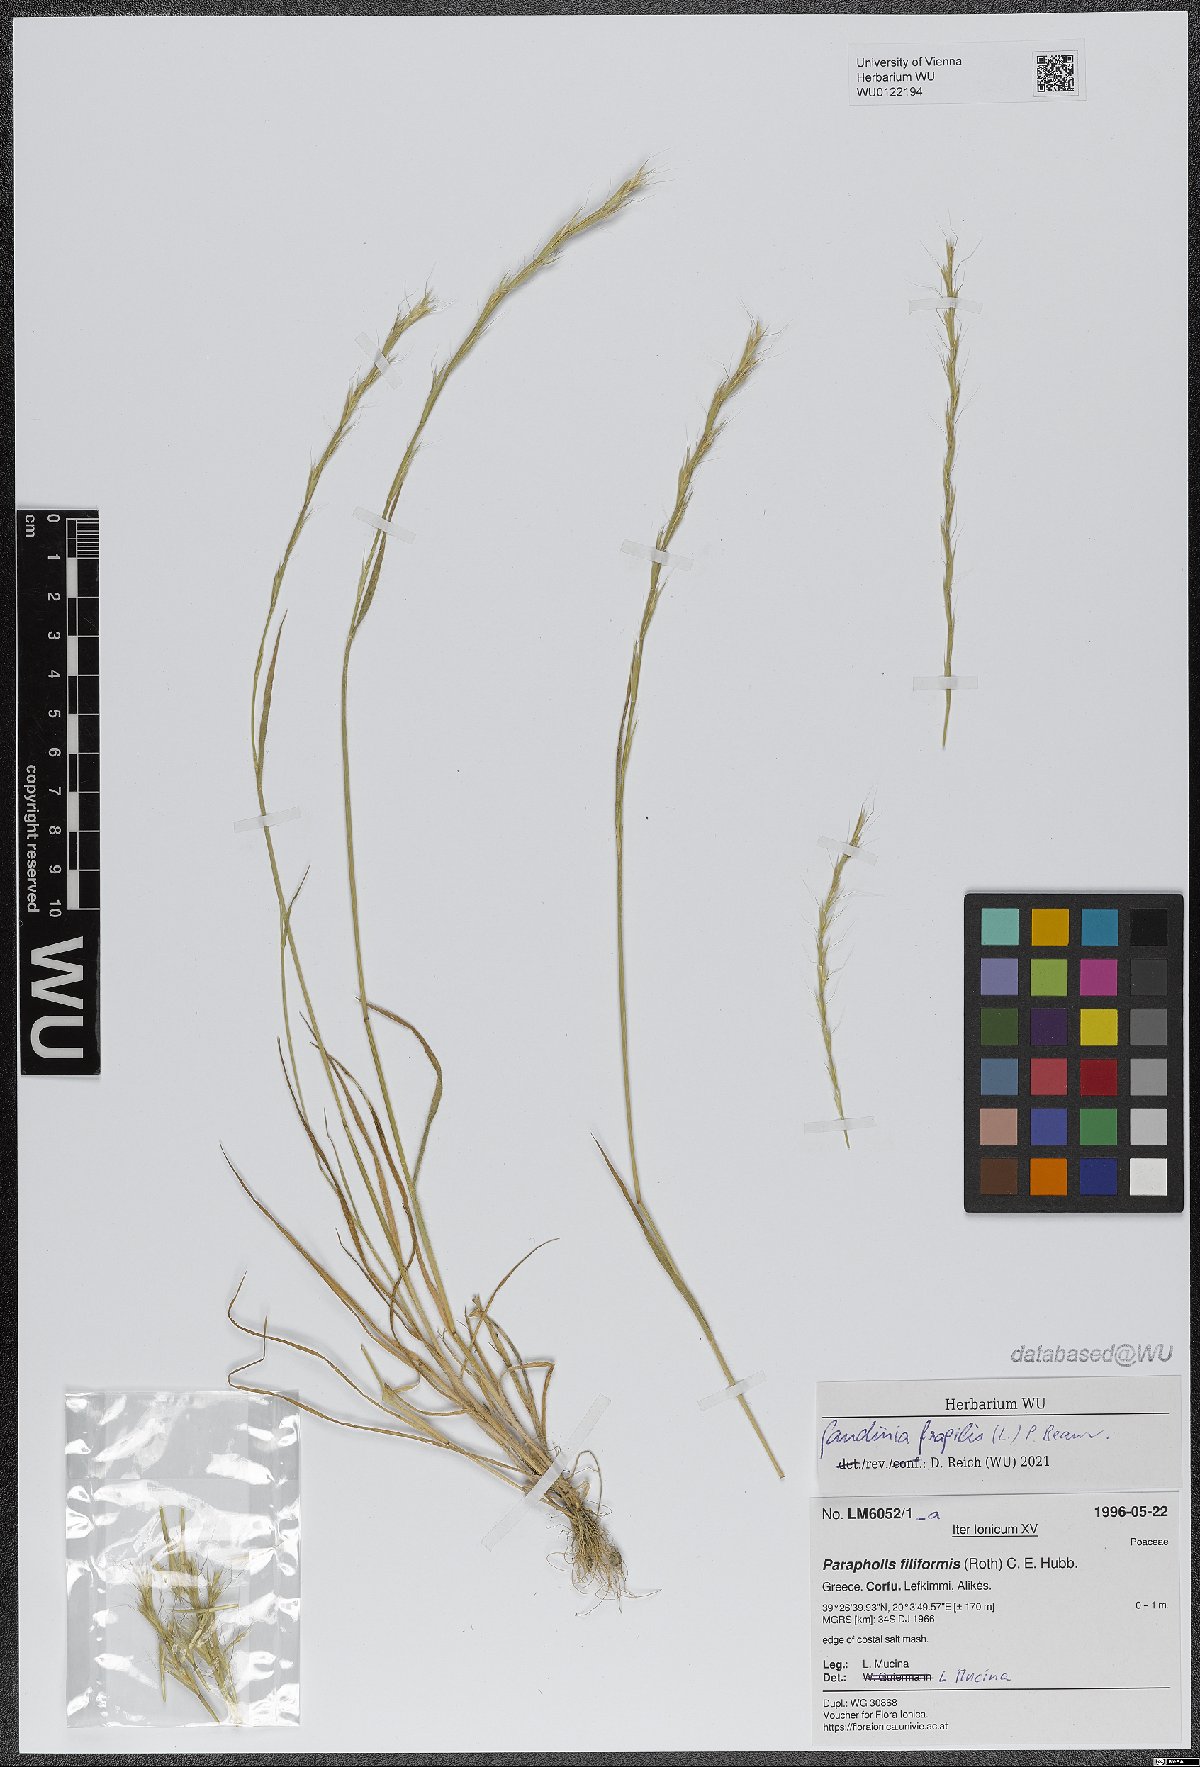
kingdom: Plantae
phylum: Tracheophyta
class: Liliopsida
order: Poales
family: Poaceae
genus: Gaudinia
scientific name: Gaudinia fragilis
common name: French oat-grass
